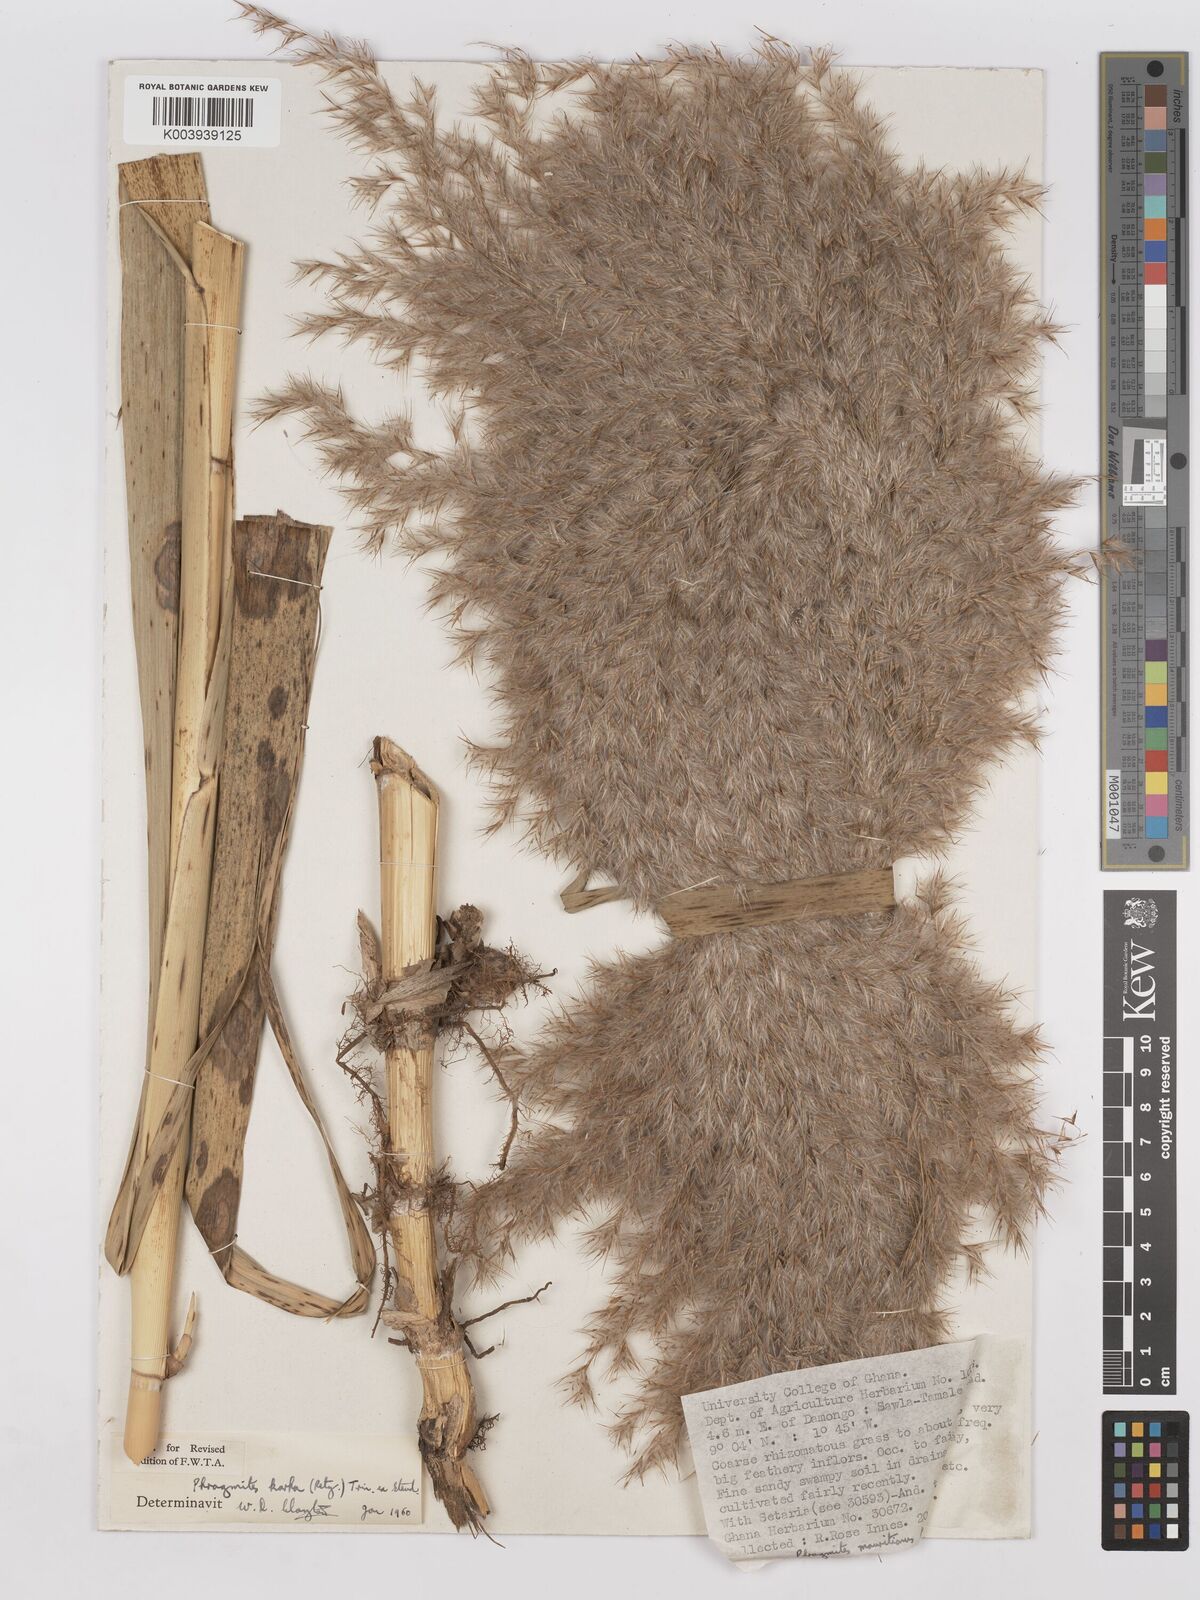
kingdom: Plantae
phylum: Tracheophyta
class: Liliopsida
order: Poales
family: Poaceae
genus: Phragmites
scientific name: Phragmites karka
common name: Tropical reed
